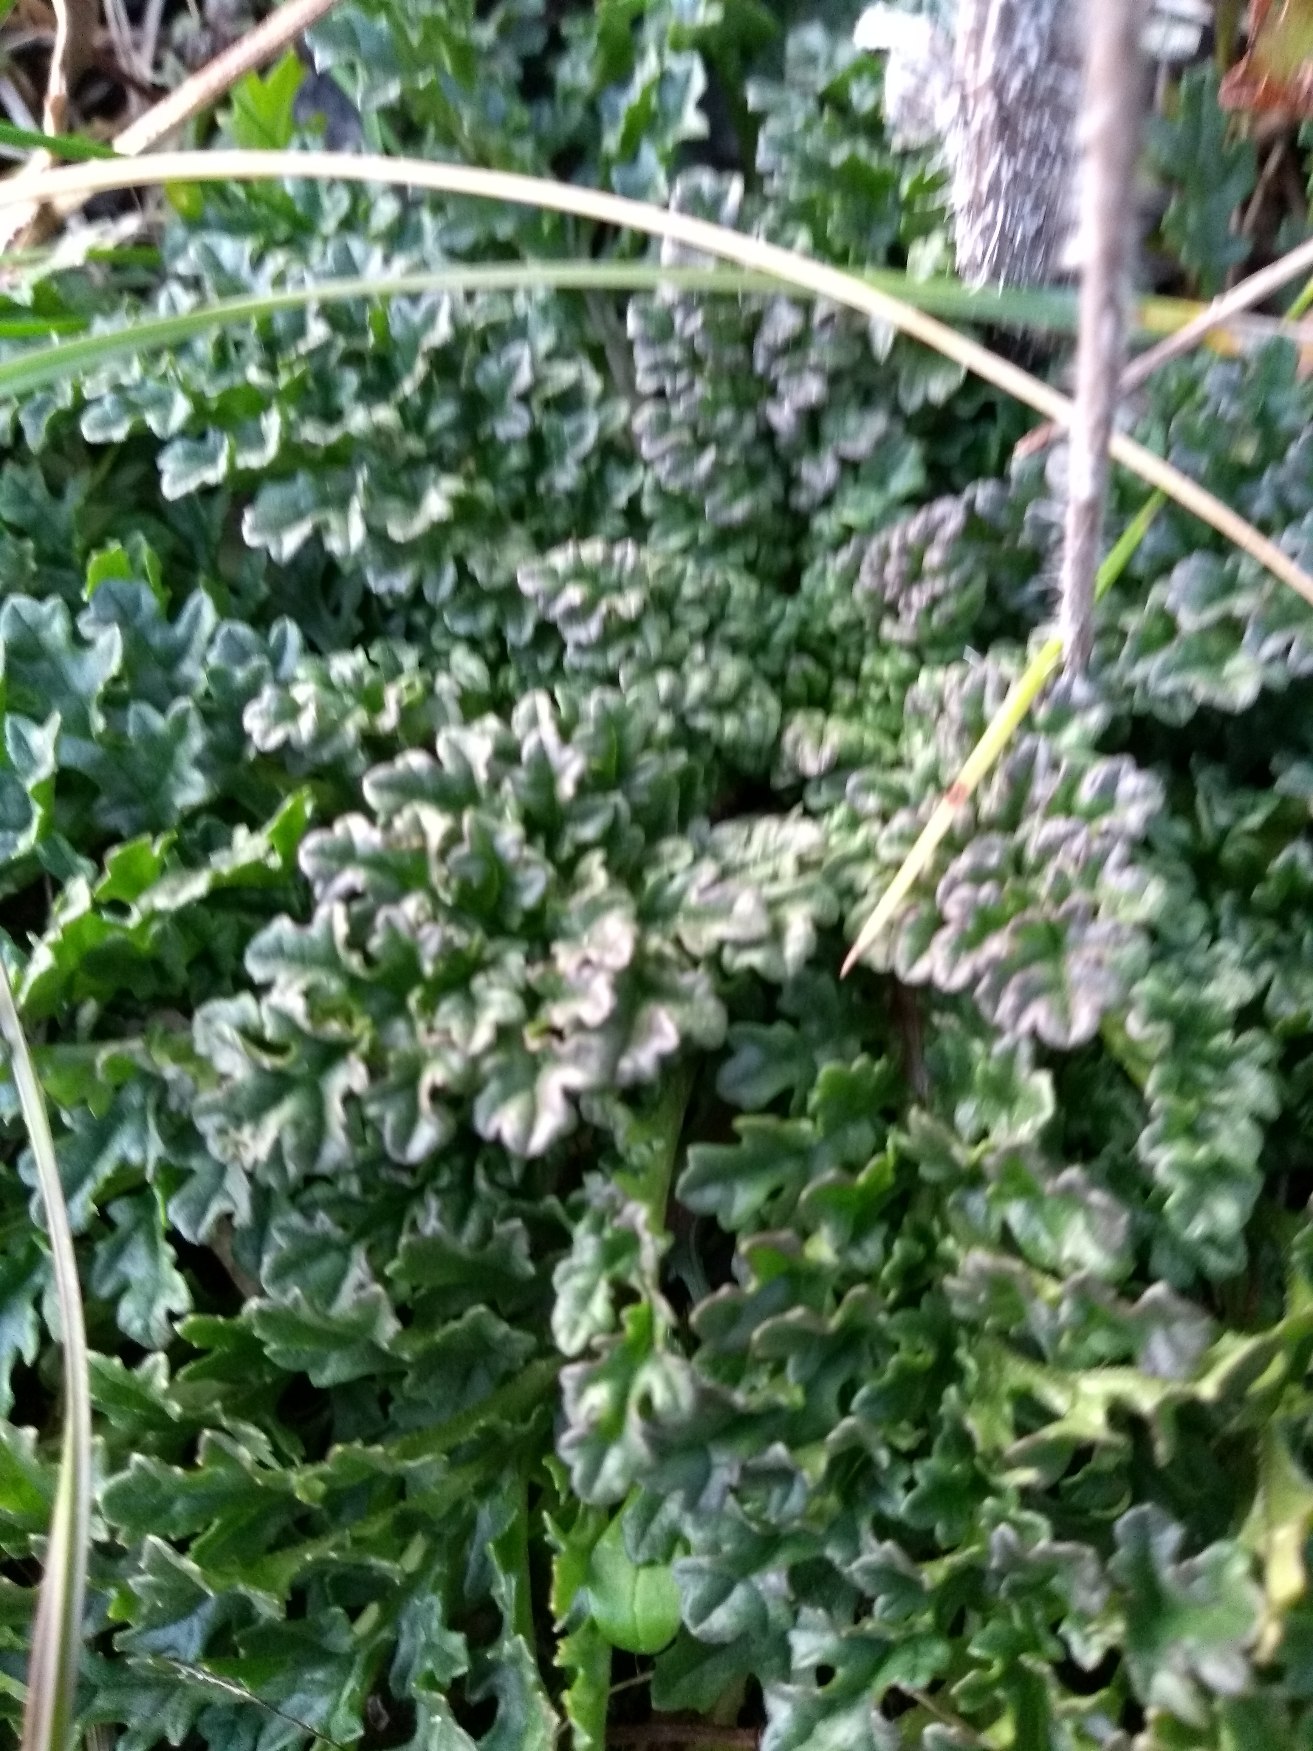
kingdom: Plantae
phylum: Tracheophyta
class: Magnoliopsida
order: Asterales
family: Asteraceae
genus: Jacobaea
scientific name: Jacobaea vulgaris
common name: Eng-brandbæger
